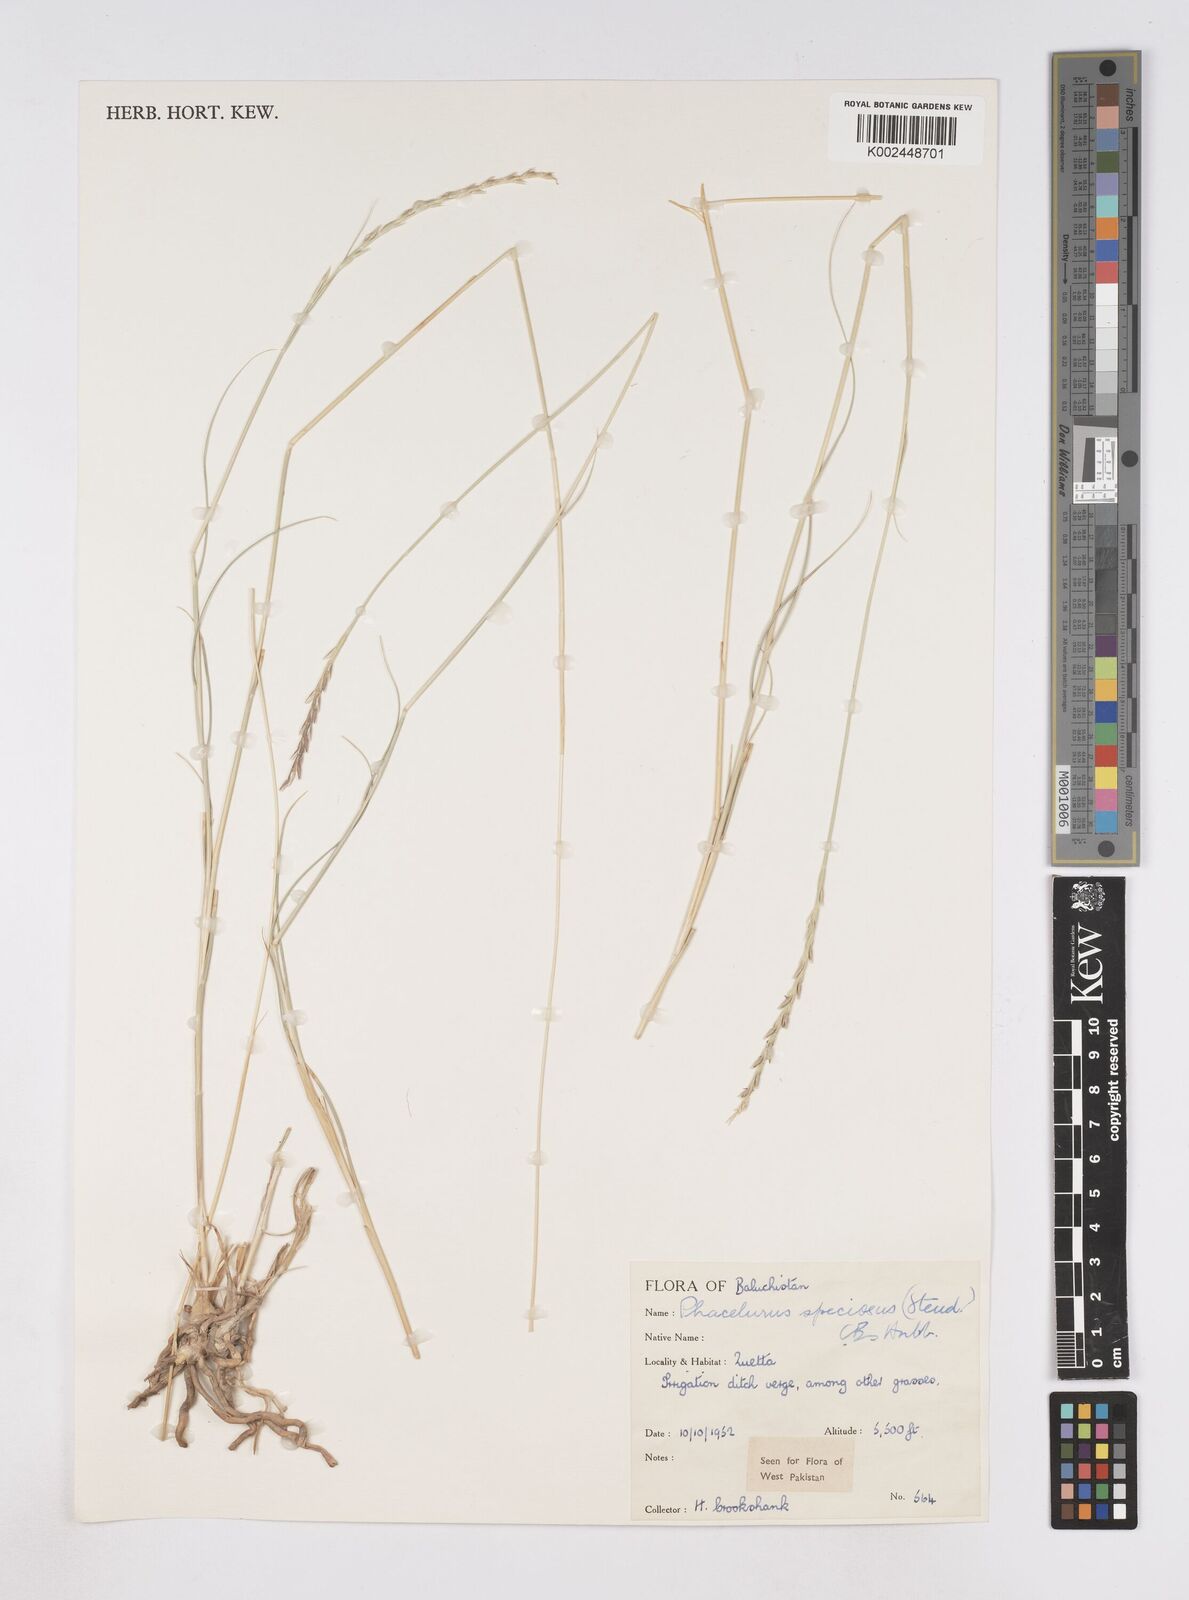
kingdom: Plantae
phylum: Tracheophyta
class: Liliopsida
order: Poales
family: Poaceae
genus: Phacelurus
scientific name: Phacelurus speciosus
